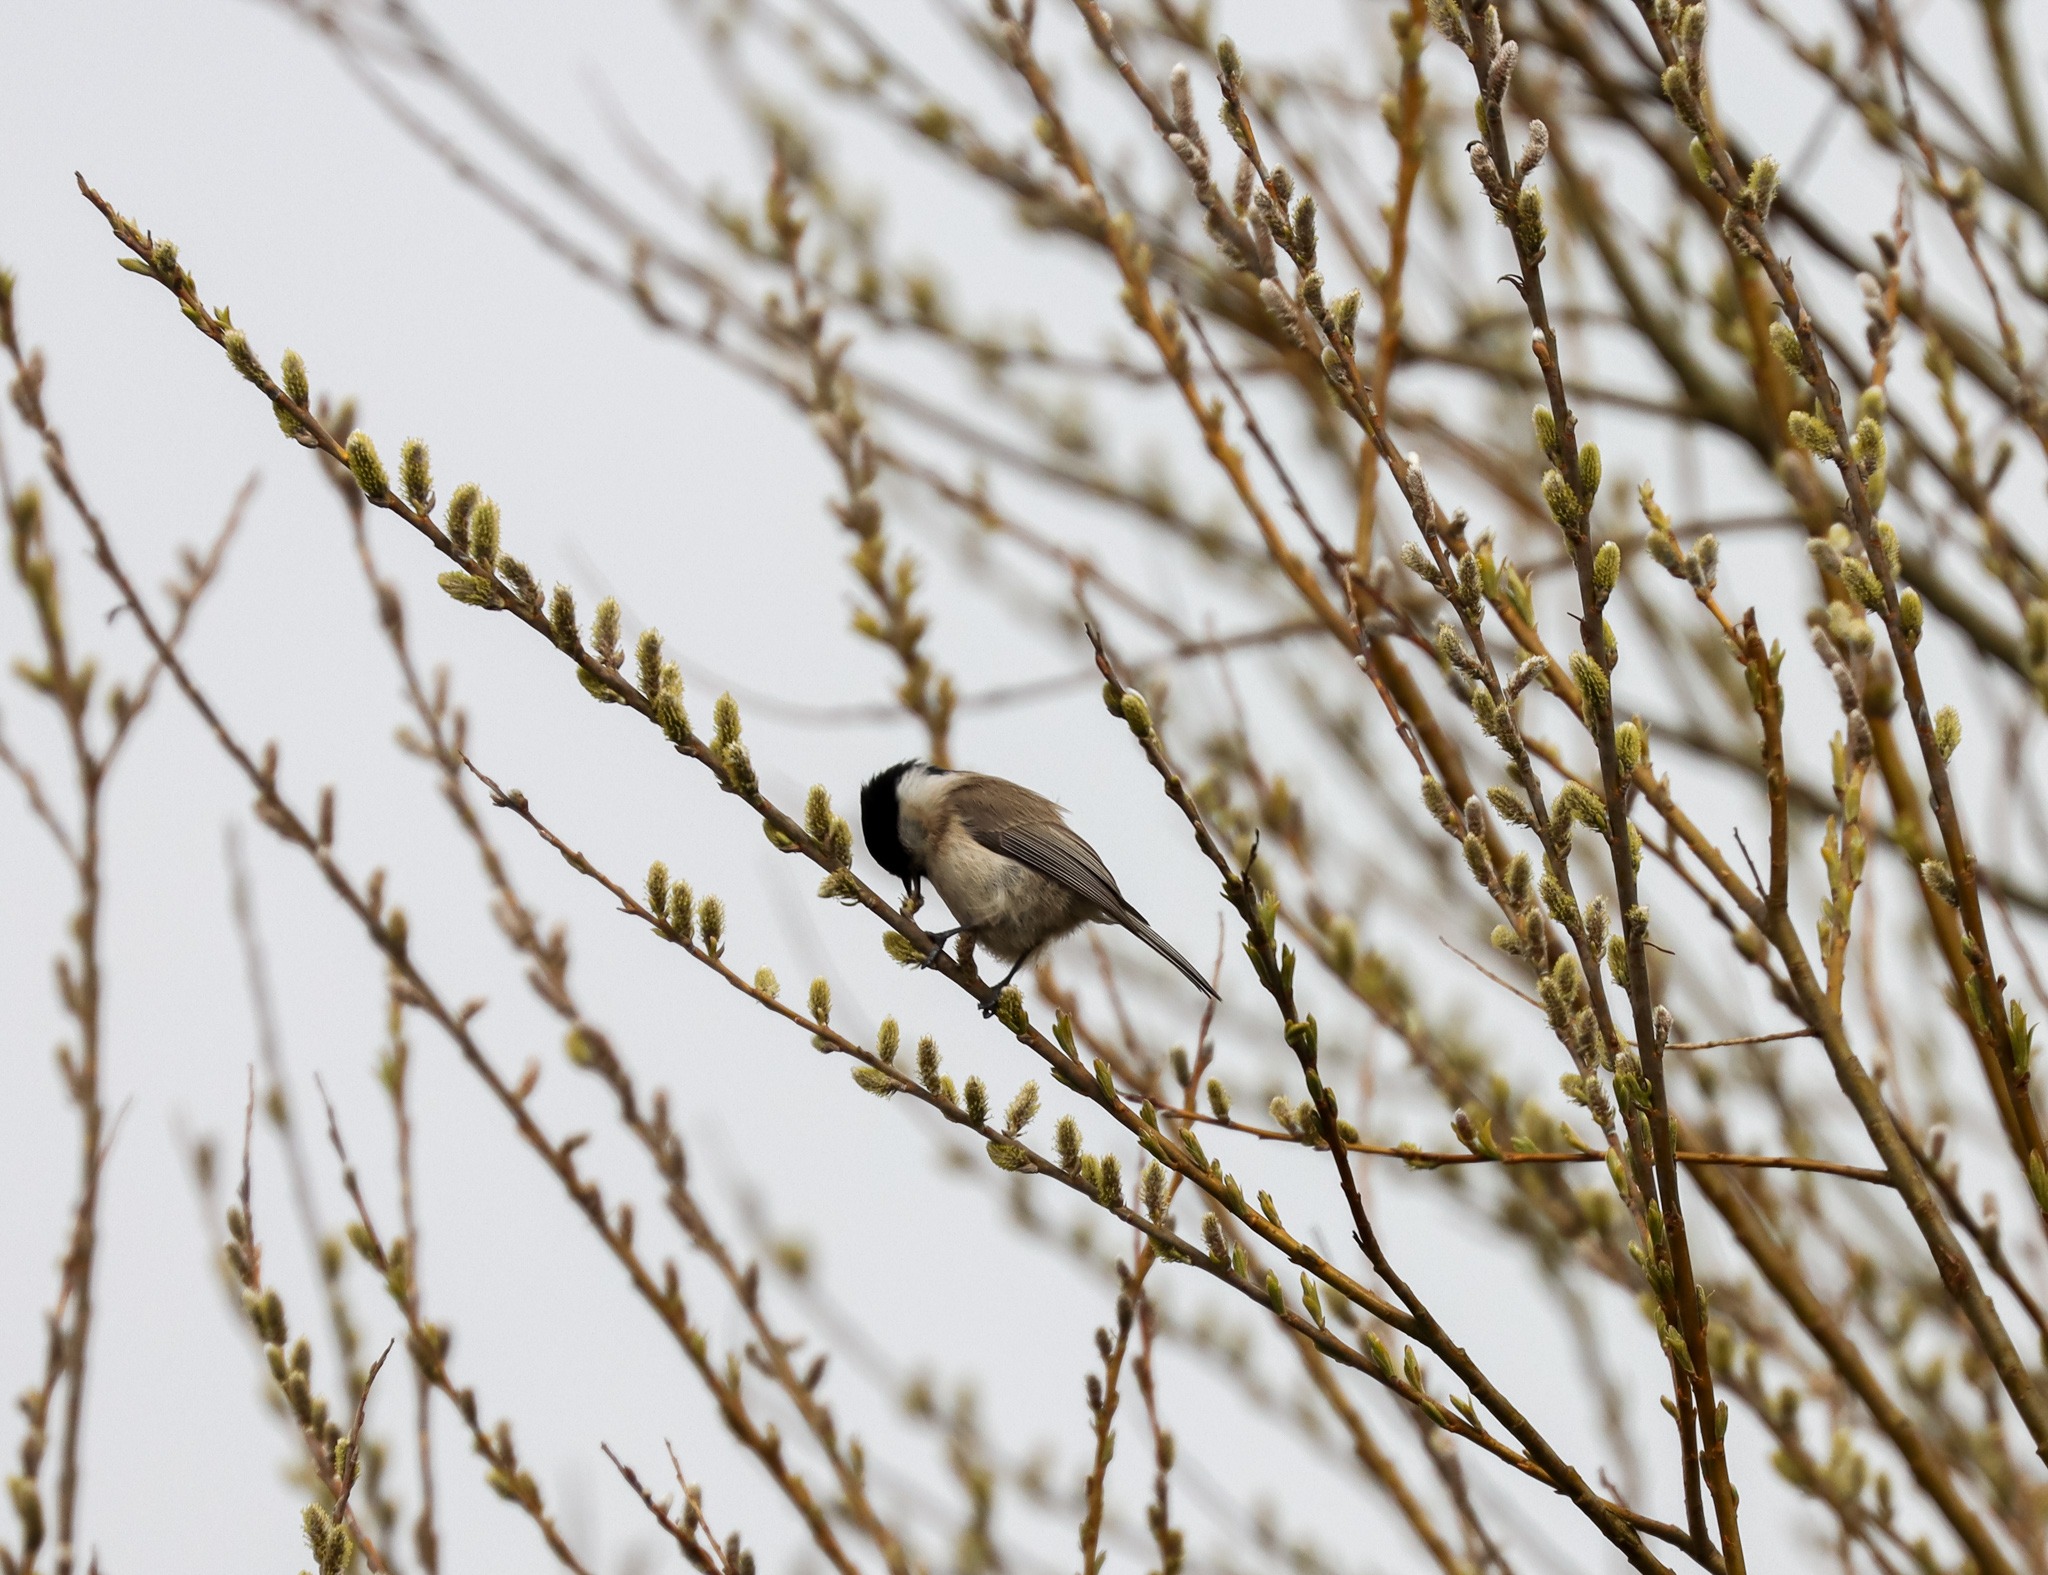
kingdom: Animalia
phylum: Chordata
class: Aves
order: Passeriformes
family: Paridae
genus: Poecile
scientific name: Poecile palustris
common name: Sumpmejse
